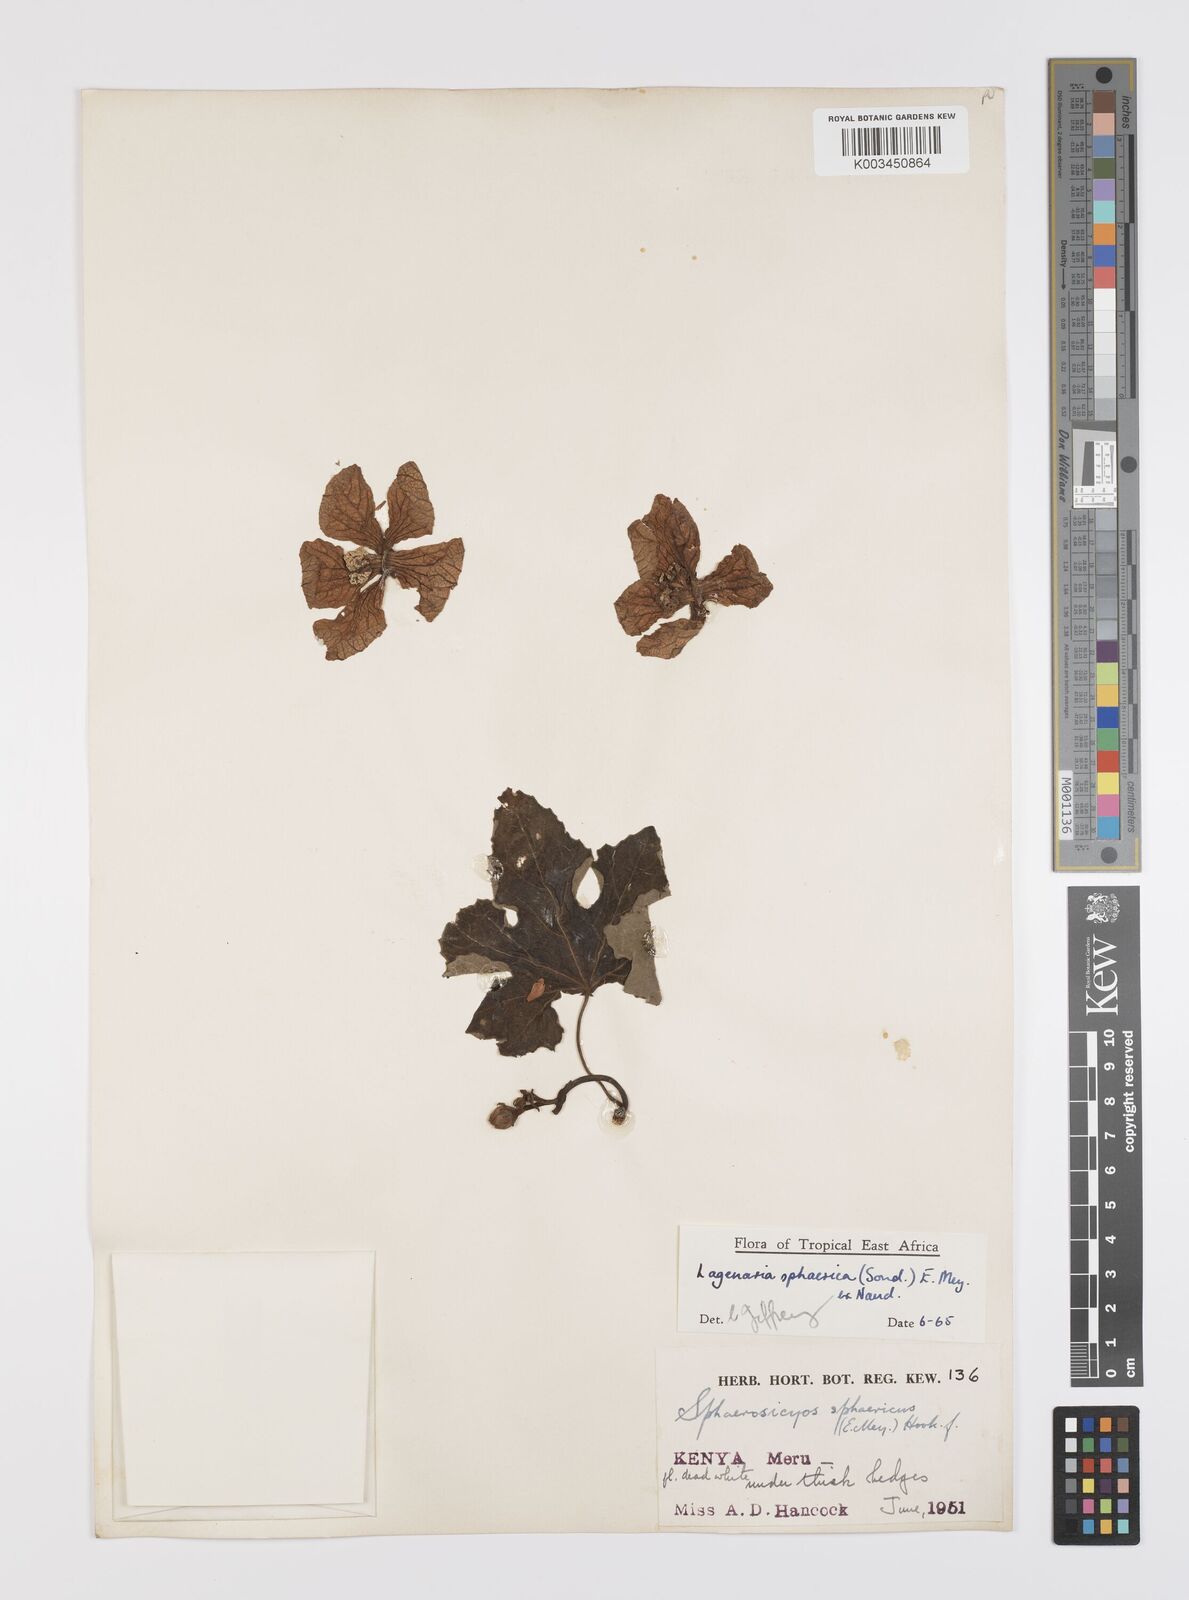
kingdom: Plantae
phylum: Tracheophyta
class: Magnoliopsida
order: Cucurbitales
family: Cucurbitaceae
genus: Lagenaria
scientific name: Lagenaria sphaerica
